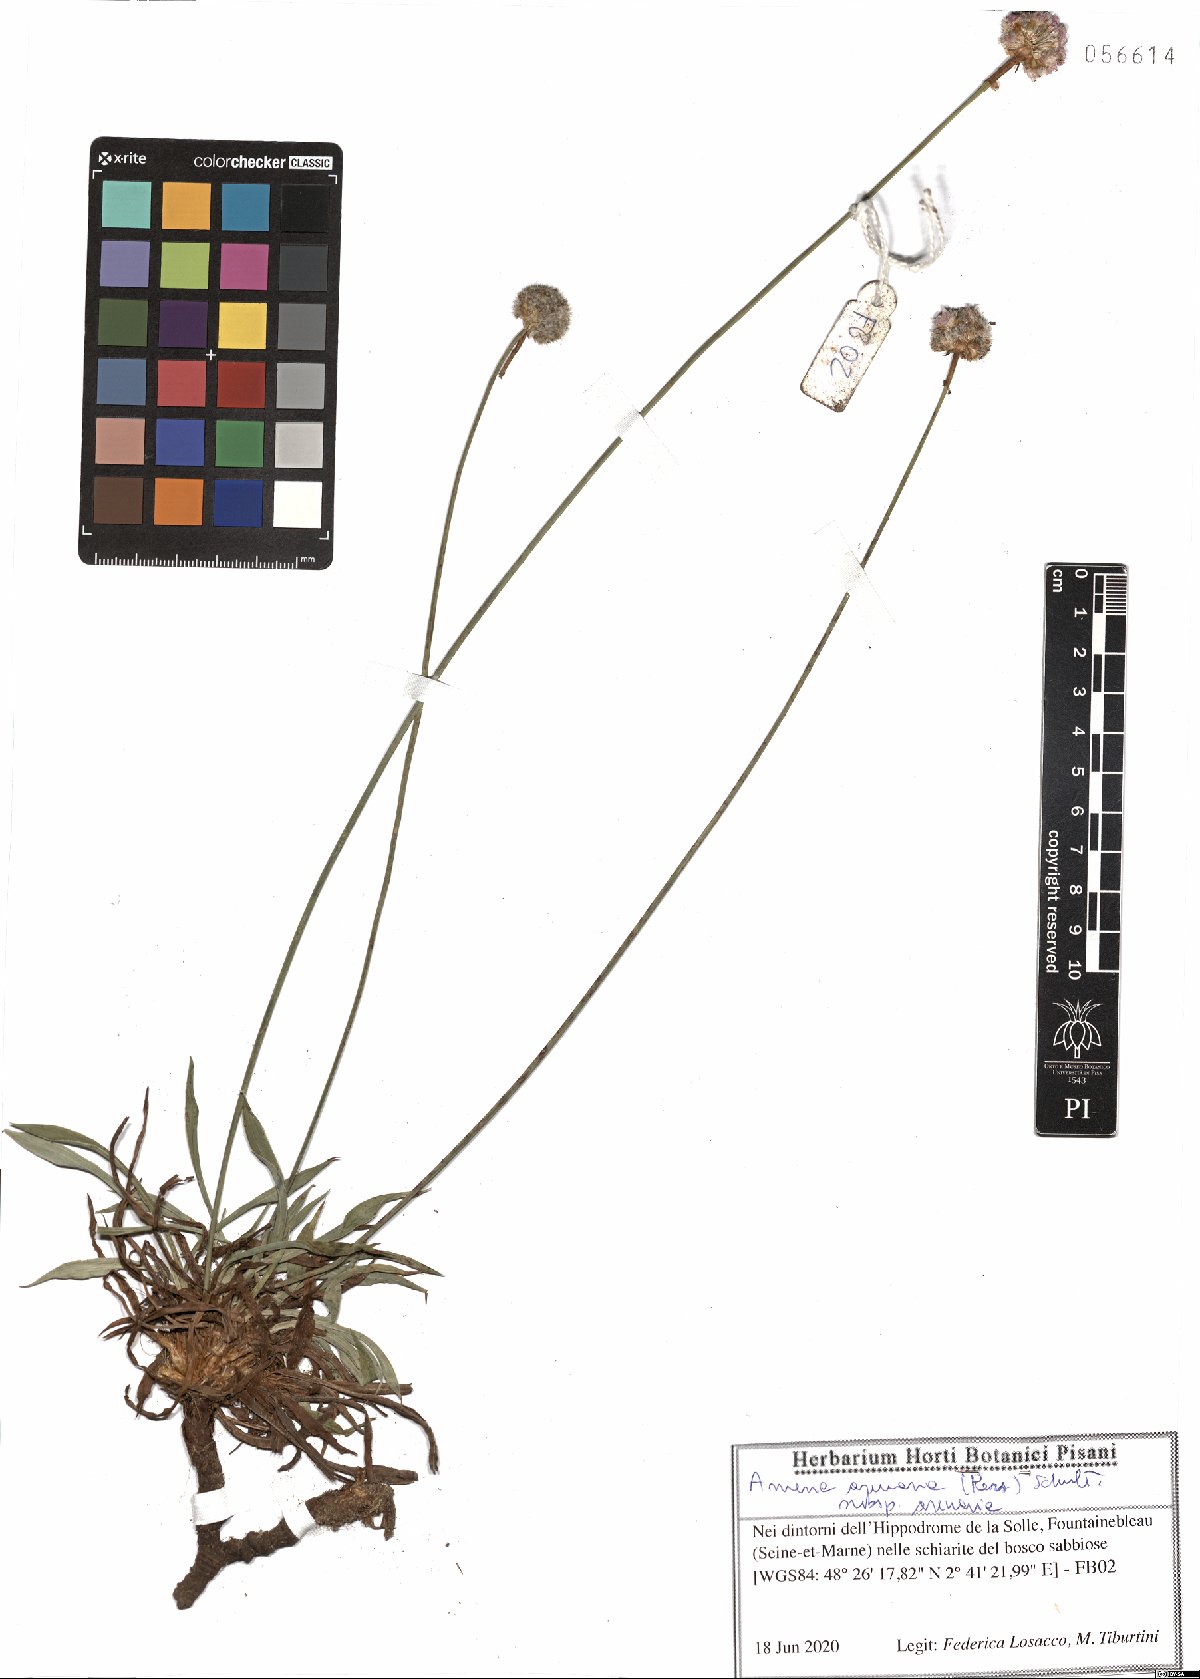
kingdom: Plantae
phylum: Tracheophyta
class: Magnoliopsida
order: Caryophyllales
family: Plumbaginaceae
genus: Armeria
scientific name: Armeria arenaria
